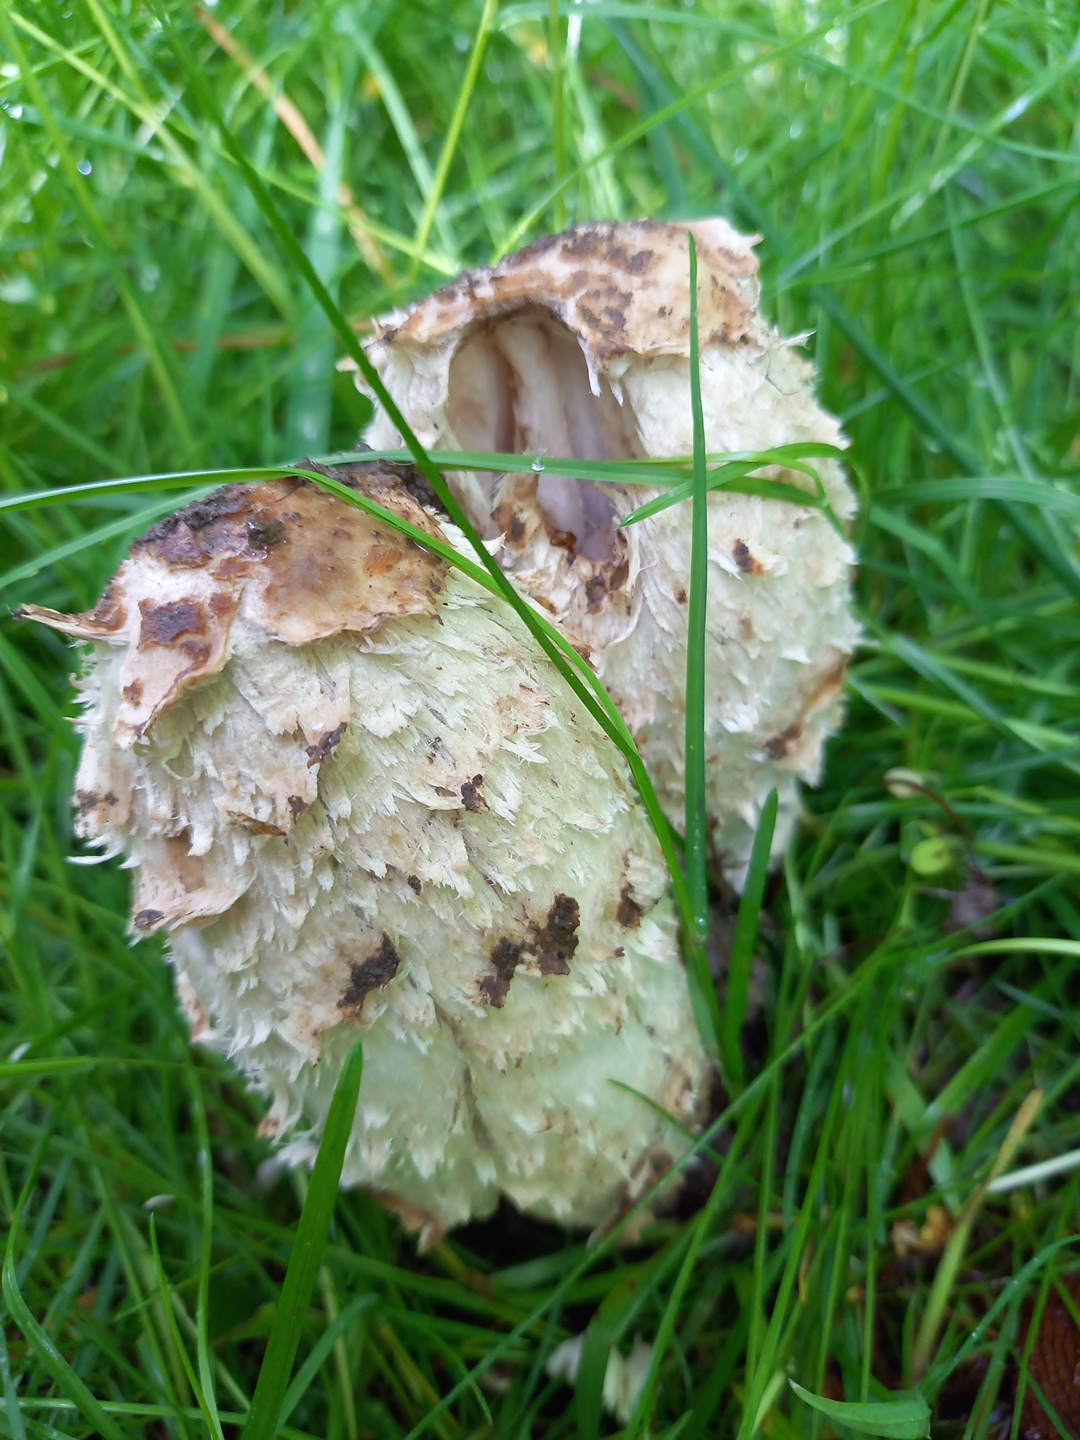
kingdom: Fungi
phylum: Basidiomycota
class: Agaricomycetes
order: Agaricales
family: Agaricaceae
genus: Coprinus
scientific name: Coprinus comatus
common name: stor parykhat
